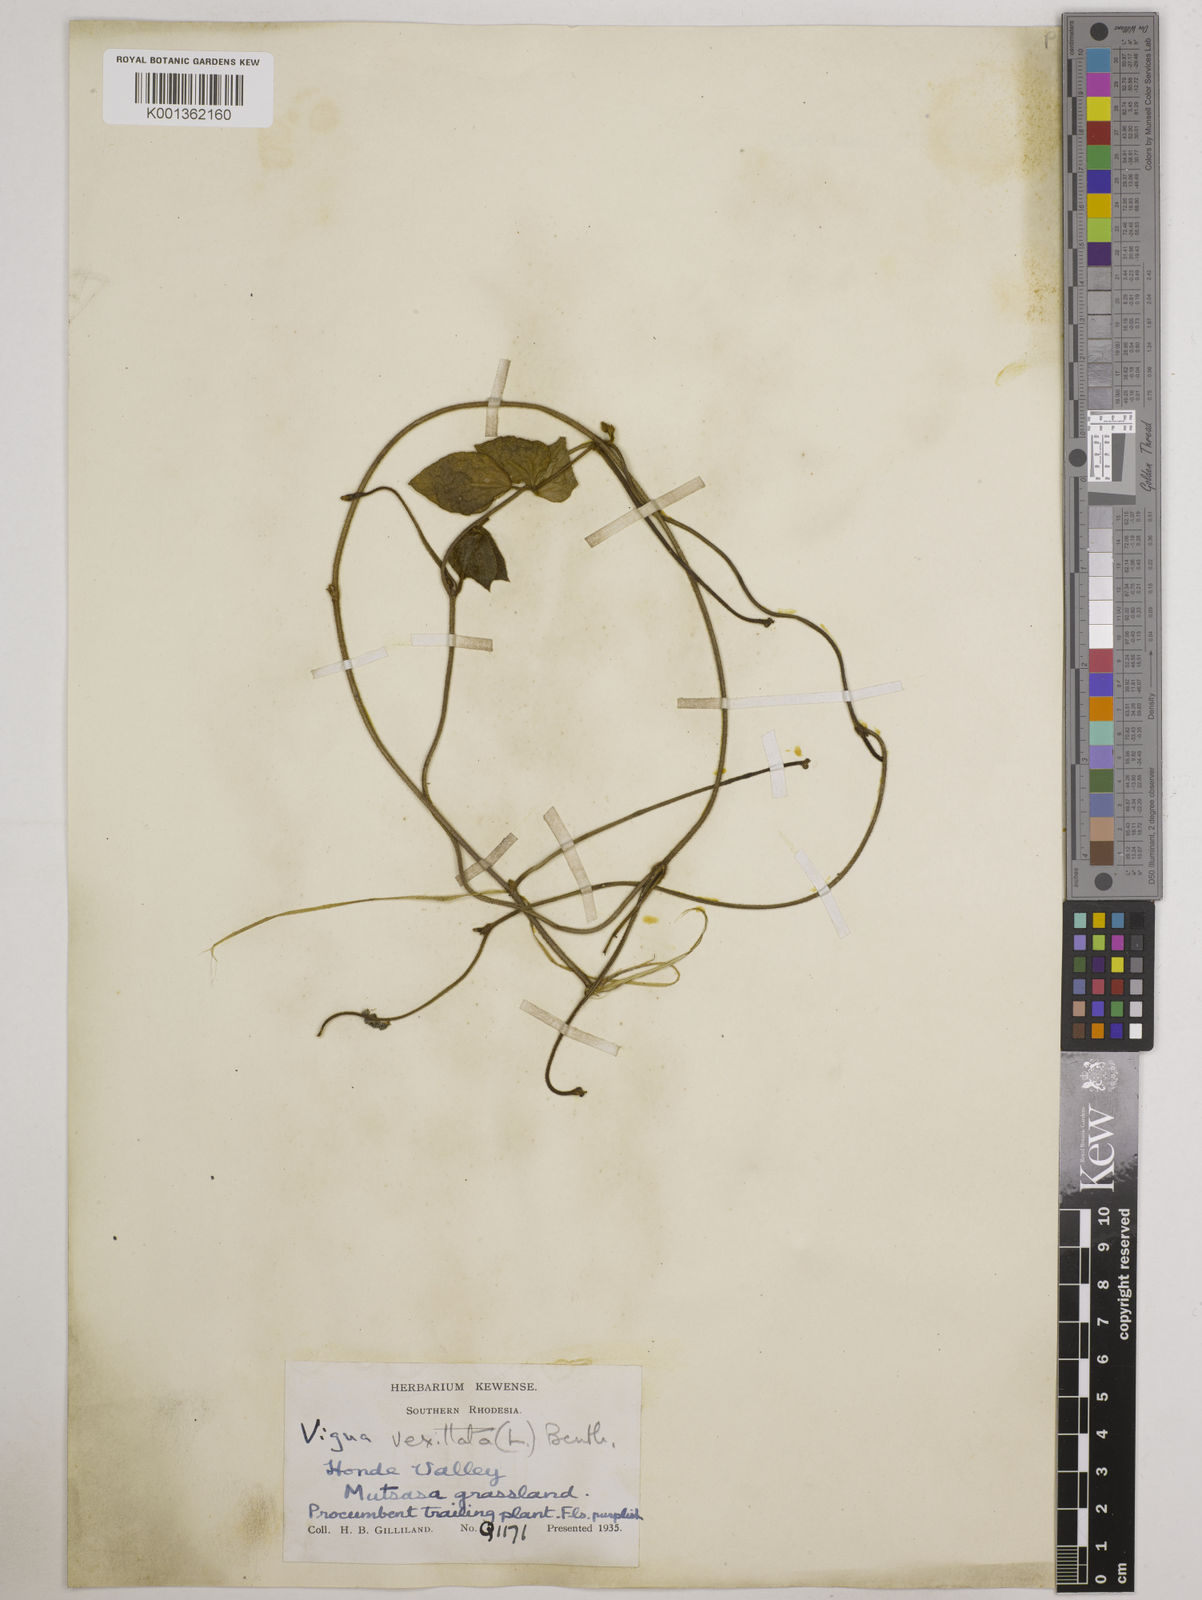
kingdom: Plantae
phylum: Tracheophyta
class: Magnoliopsida
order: Fabales
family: Fabaceae
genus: Vigna
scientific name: Vigna vexillata
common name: Zombi pea
